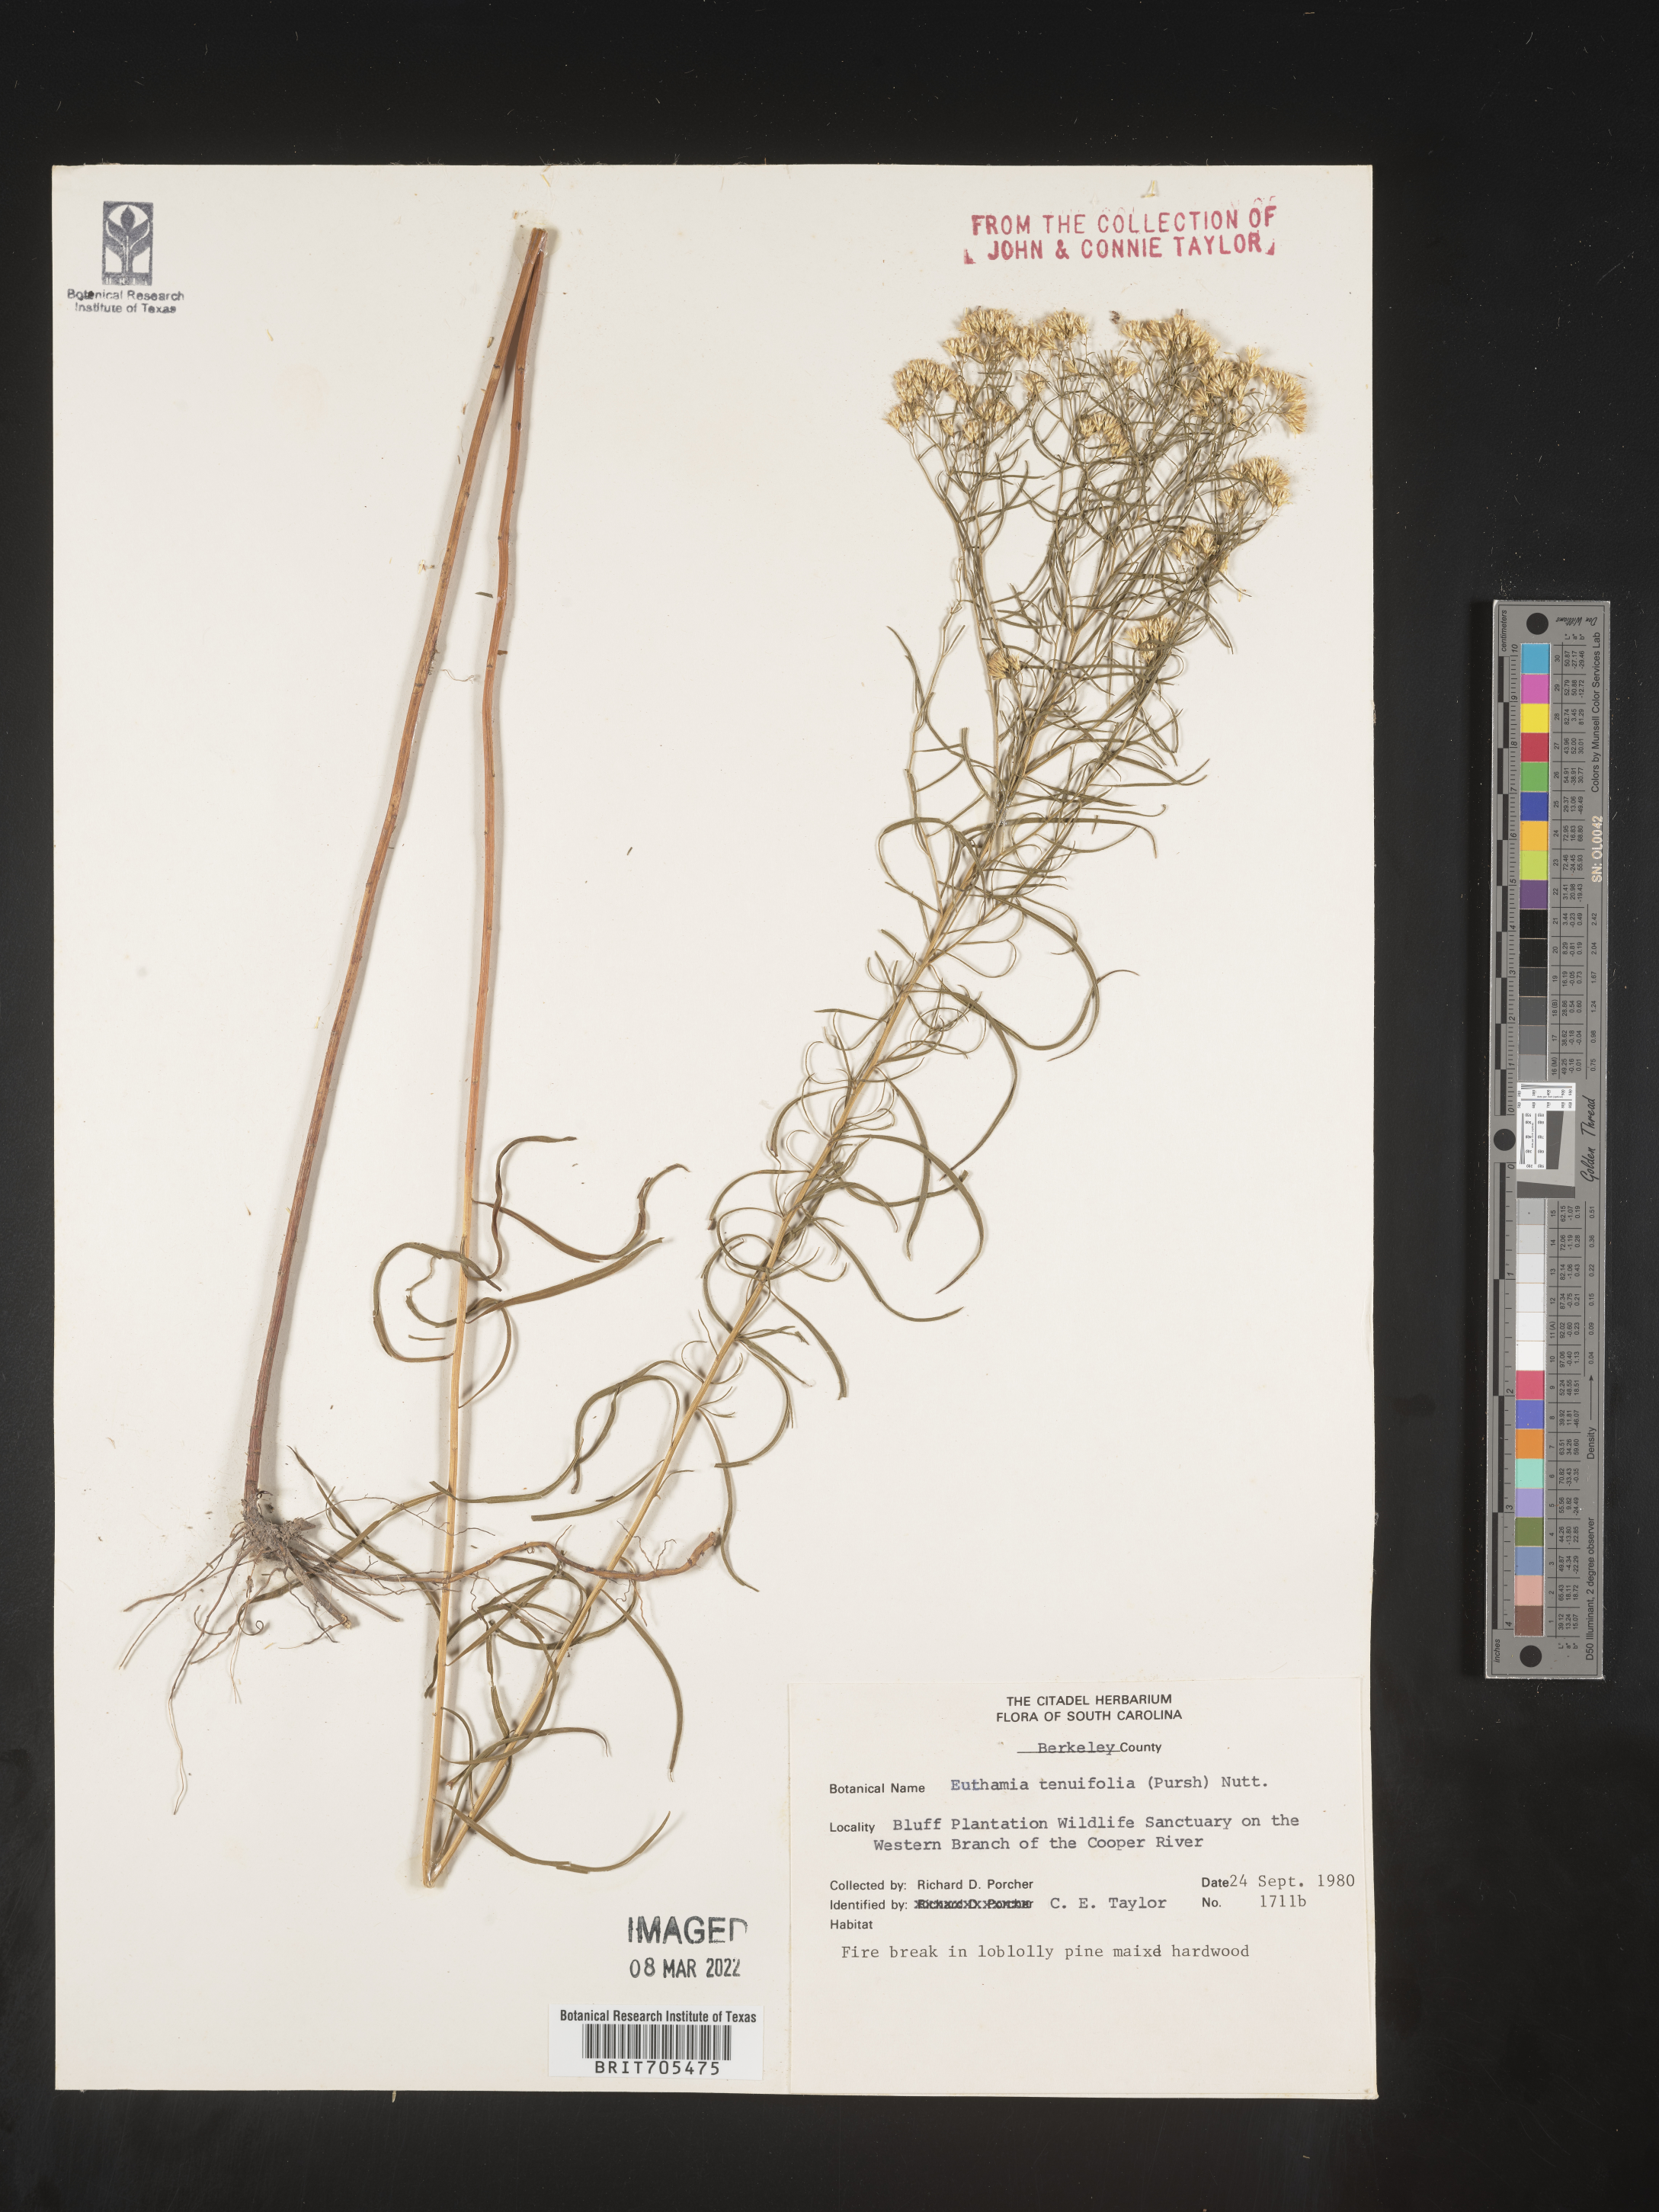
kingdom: Plantae
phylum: Tracheophyta
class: Magnoliopsida
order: Asterales
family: Asteraceae
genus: Euthamia
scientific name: Euthamia caroliniana
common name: Coastal plain goldentop
